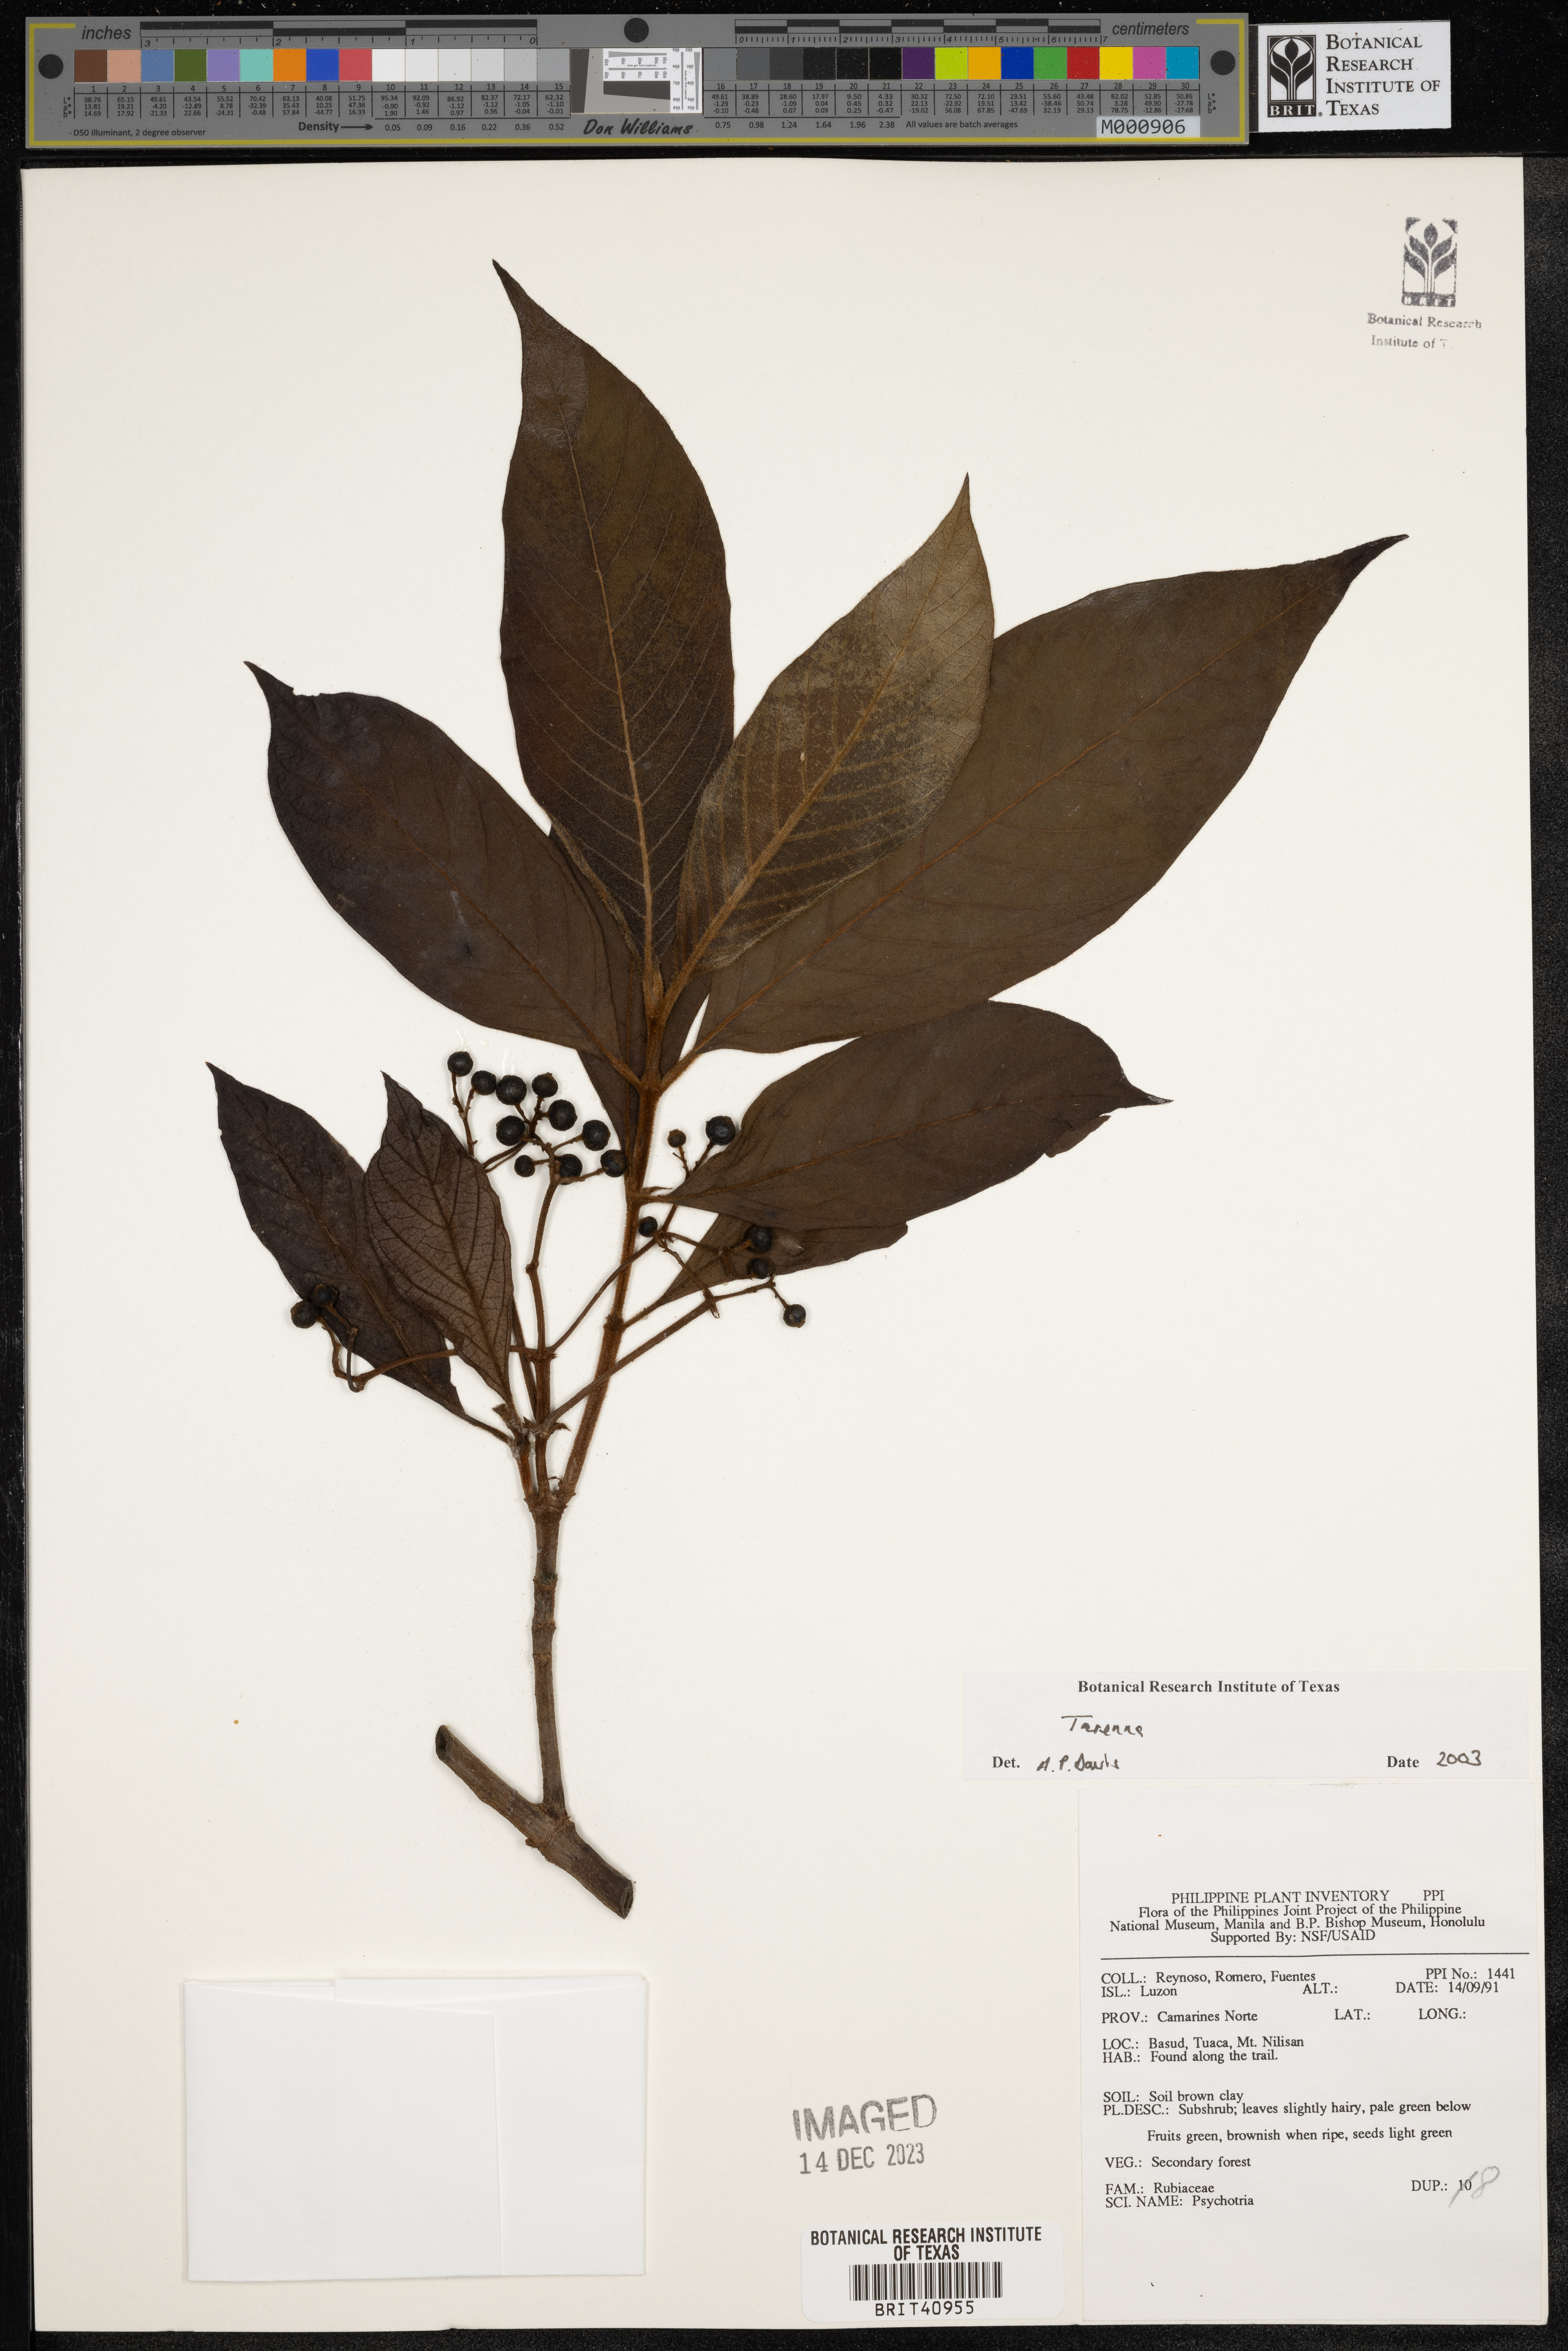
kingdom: Plantae
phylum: Tracheophyta
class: Magnoliopsida
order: Gentianales
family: Rubiaceae
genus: Tarenna
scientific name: Tarenna
